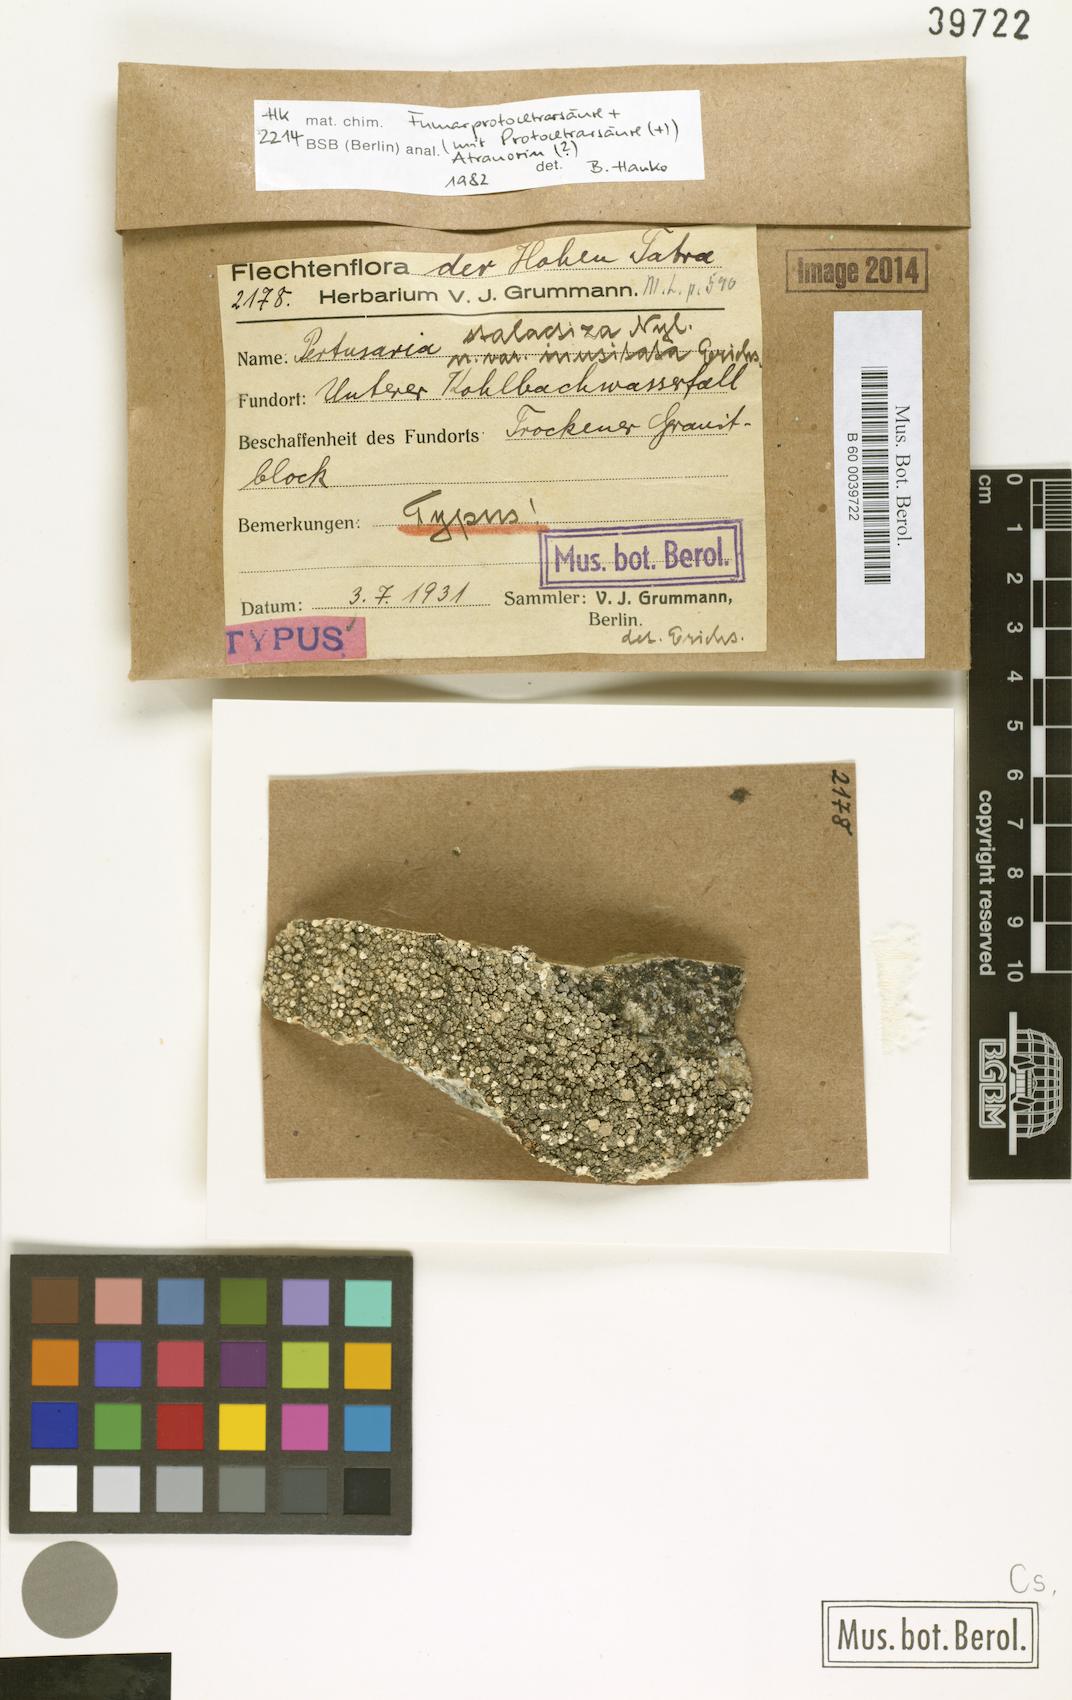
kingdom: Fungi
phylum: Ascomycota
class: Lecanoromycetes
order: Pertusariales
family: Pertusariaceae
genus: Lepra
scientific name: Lepra stalactiza
